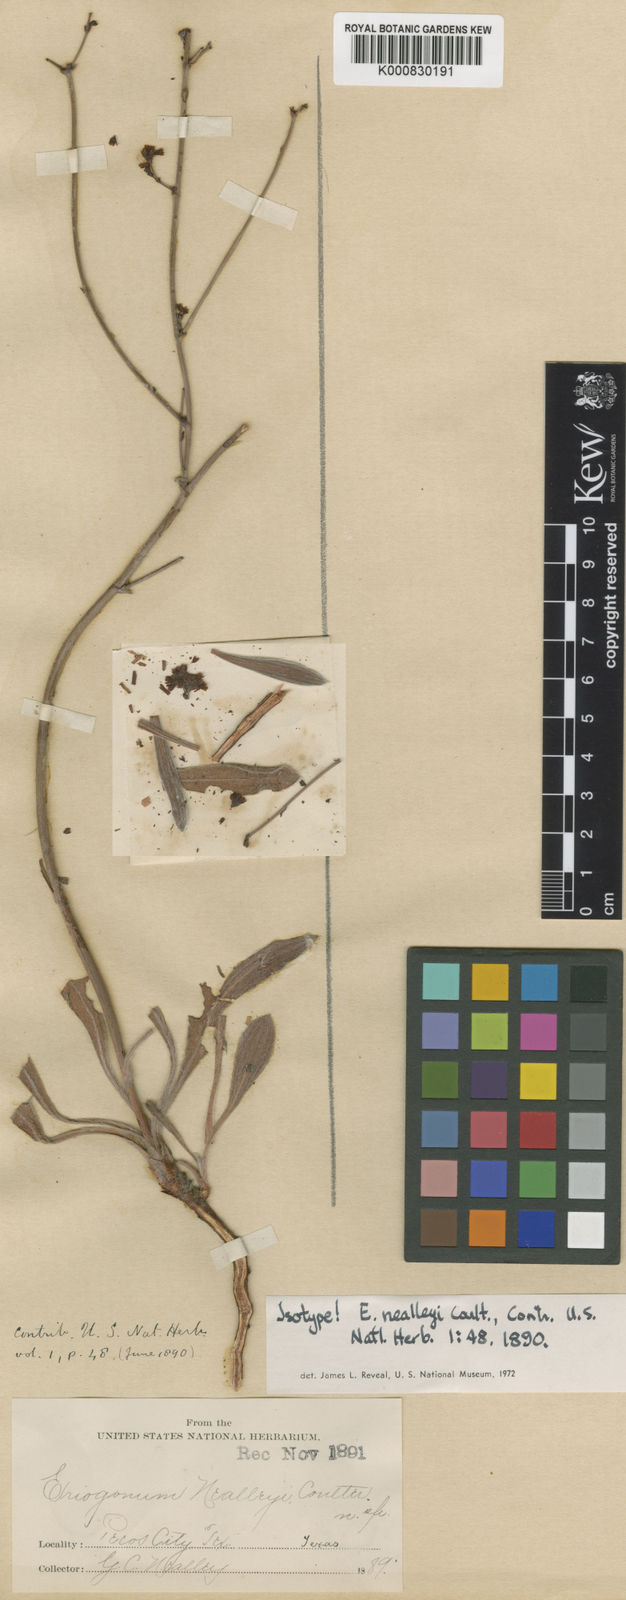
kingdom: Plantae
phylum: Tracheophyta
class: Magnoliopsida
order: Caryophyllales
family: Polygonaceae
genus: Eriogonum
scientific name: Eriogonum nealleyi
